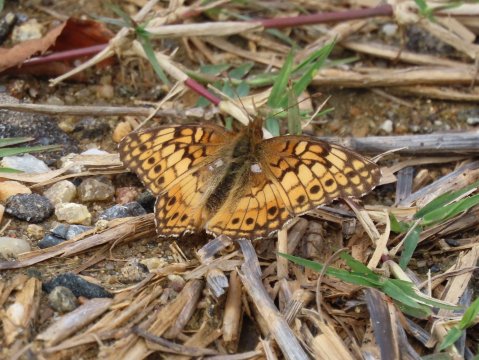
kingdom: Animalia
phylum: Arthropoda
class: Insecta
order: Lepidoptera
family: Nymphalidae
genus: Euptoieta
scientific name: Euptoieta claudia
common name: Variegated Fritillary
